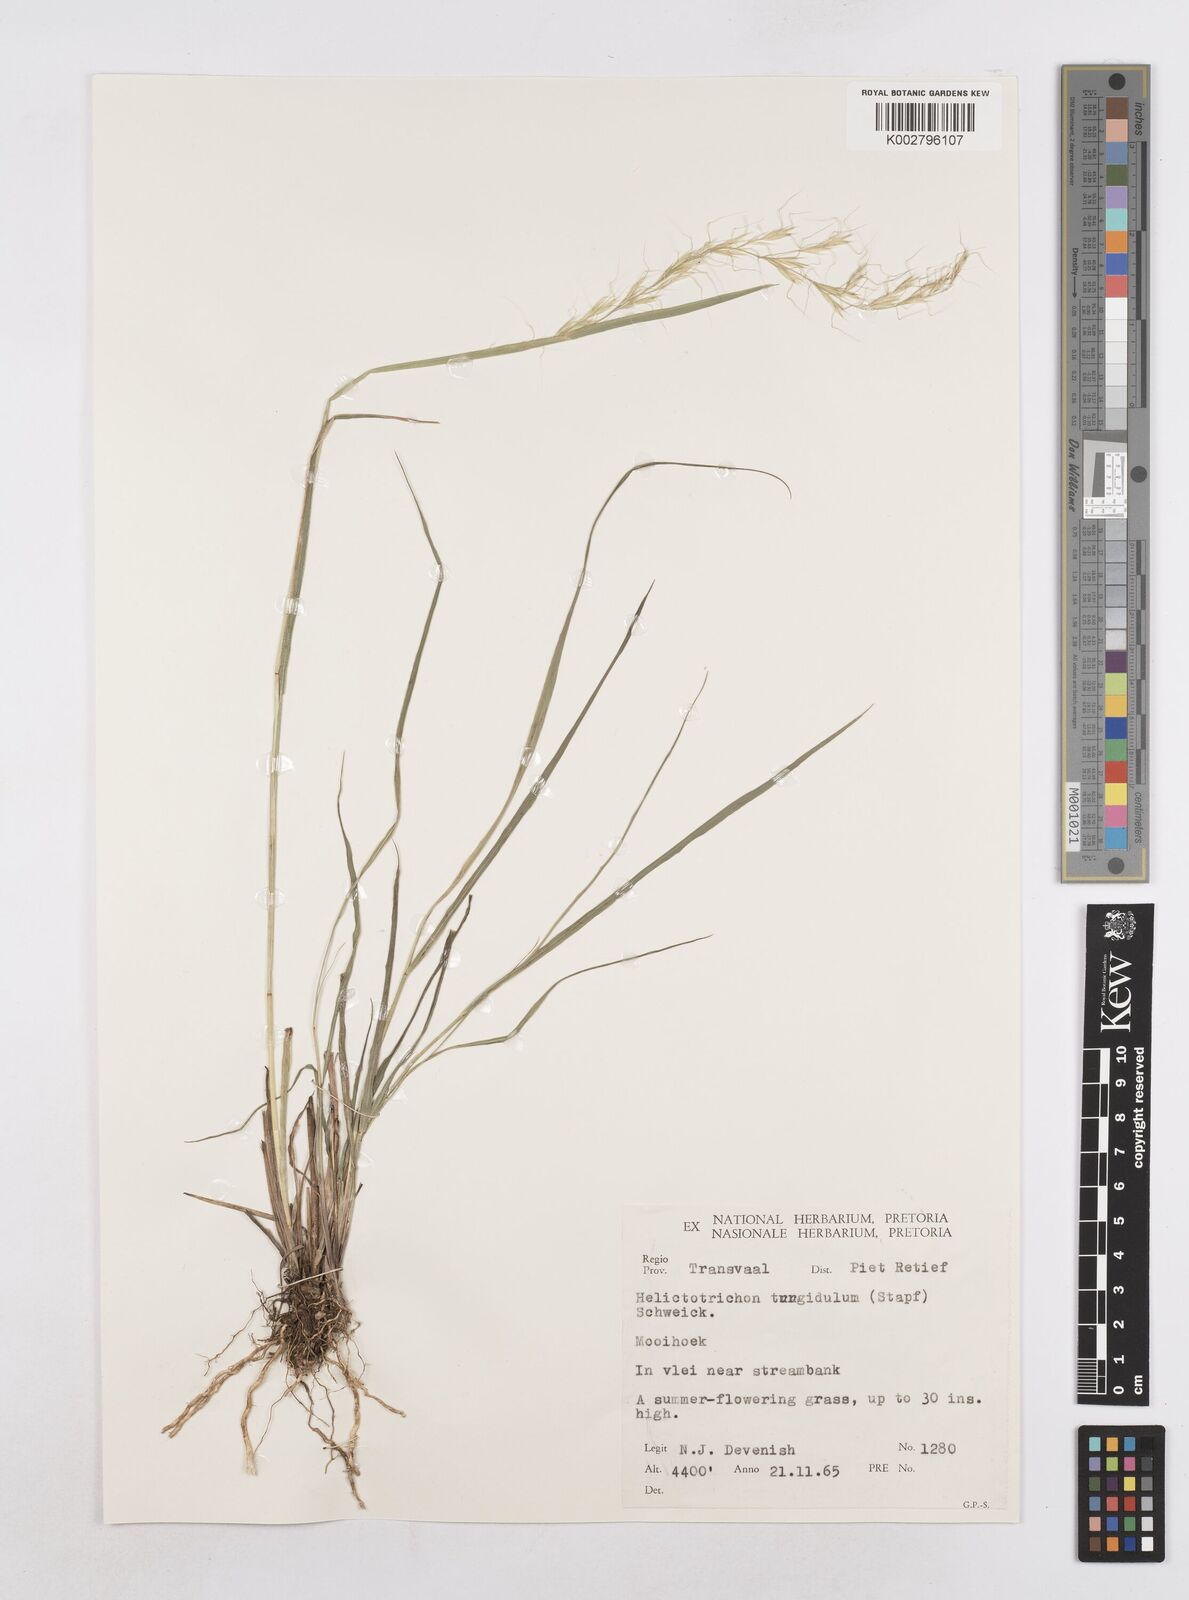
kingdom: Plantae
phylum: Tracheophyta
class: Liliopsida
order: Poales
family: Poaceae
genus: Trisetopsis
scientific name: Trisetopsis imberbis
